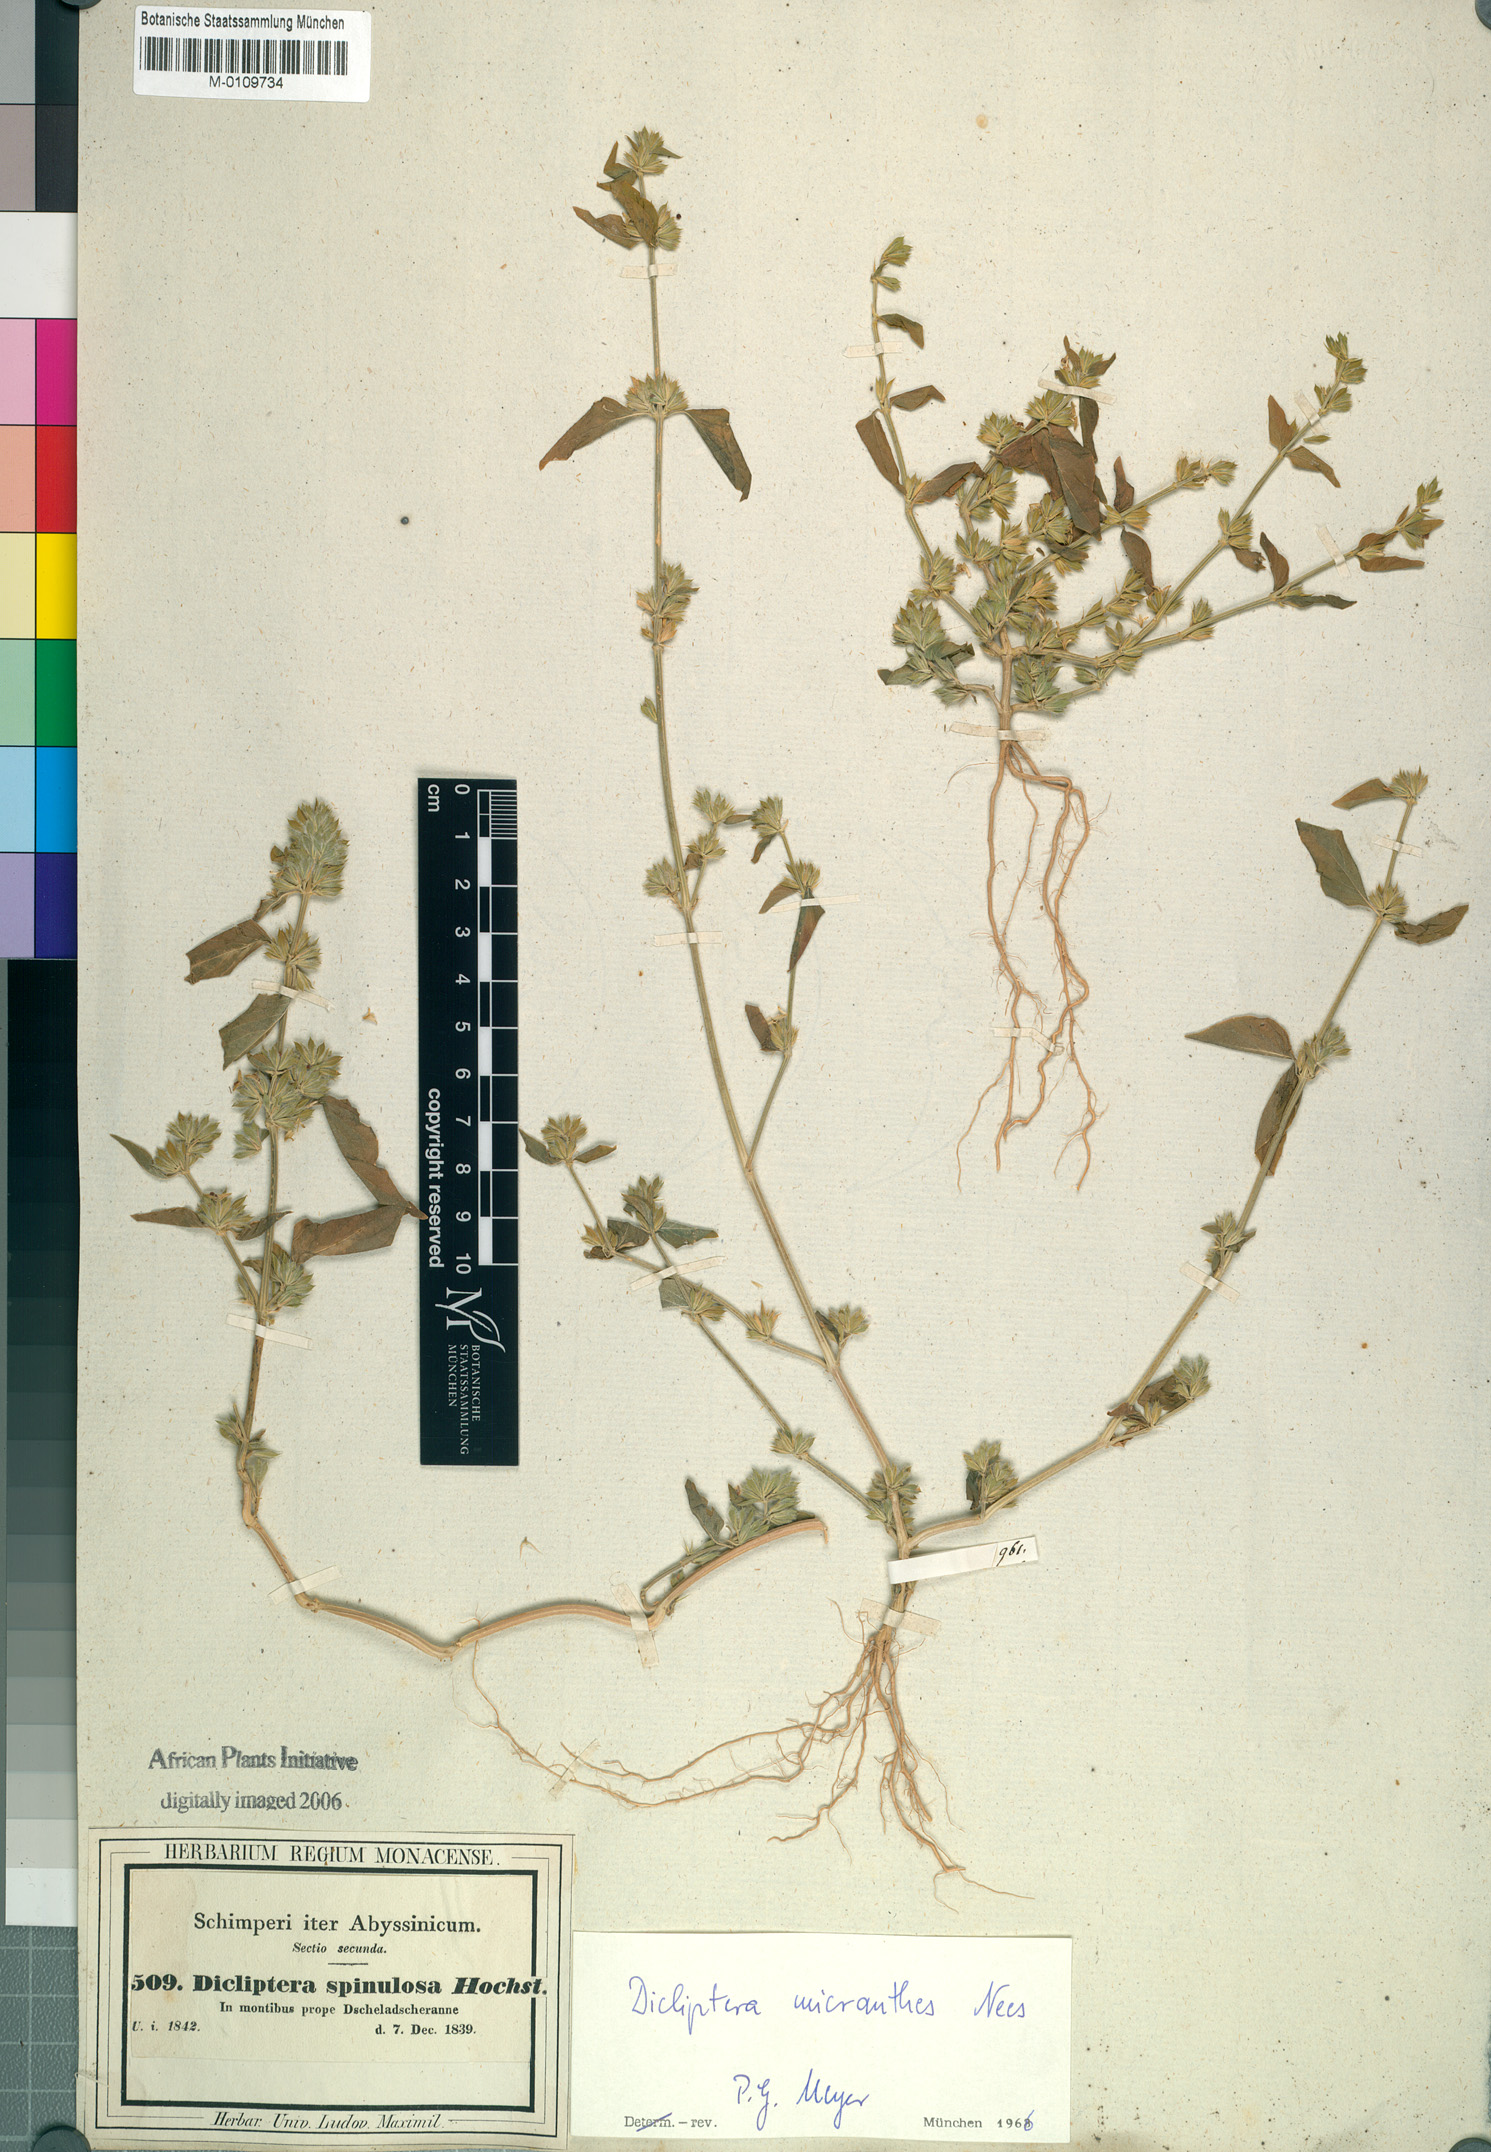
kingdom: Plantae
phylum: Tracheophyta
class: Magnoliopsida
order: Lamiales
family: Acanthaceae
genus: Dicliptera
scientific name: Dicliptera verticillata
